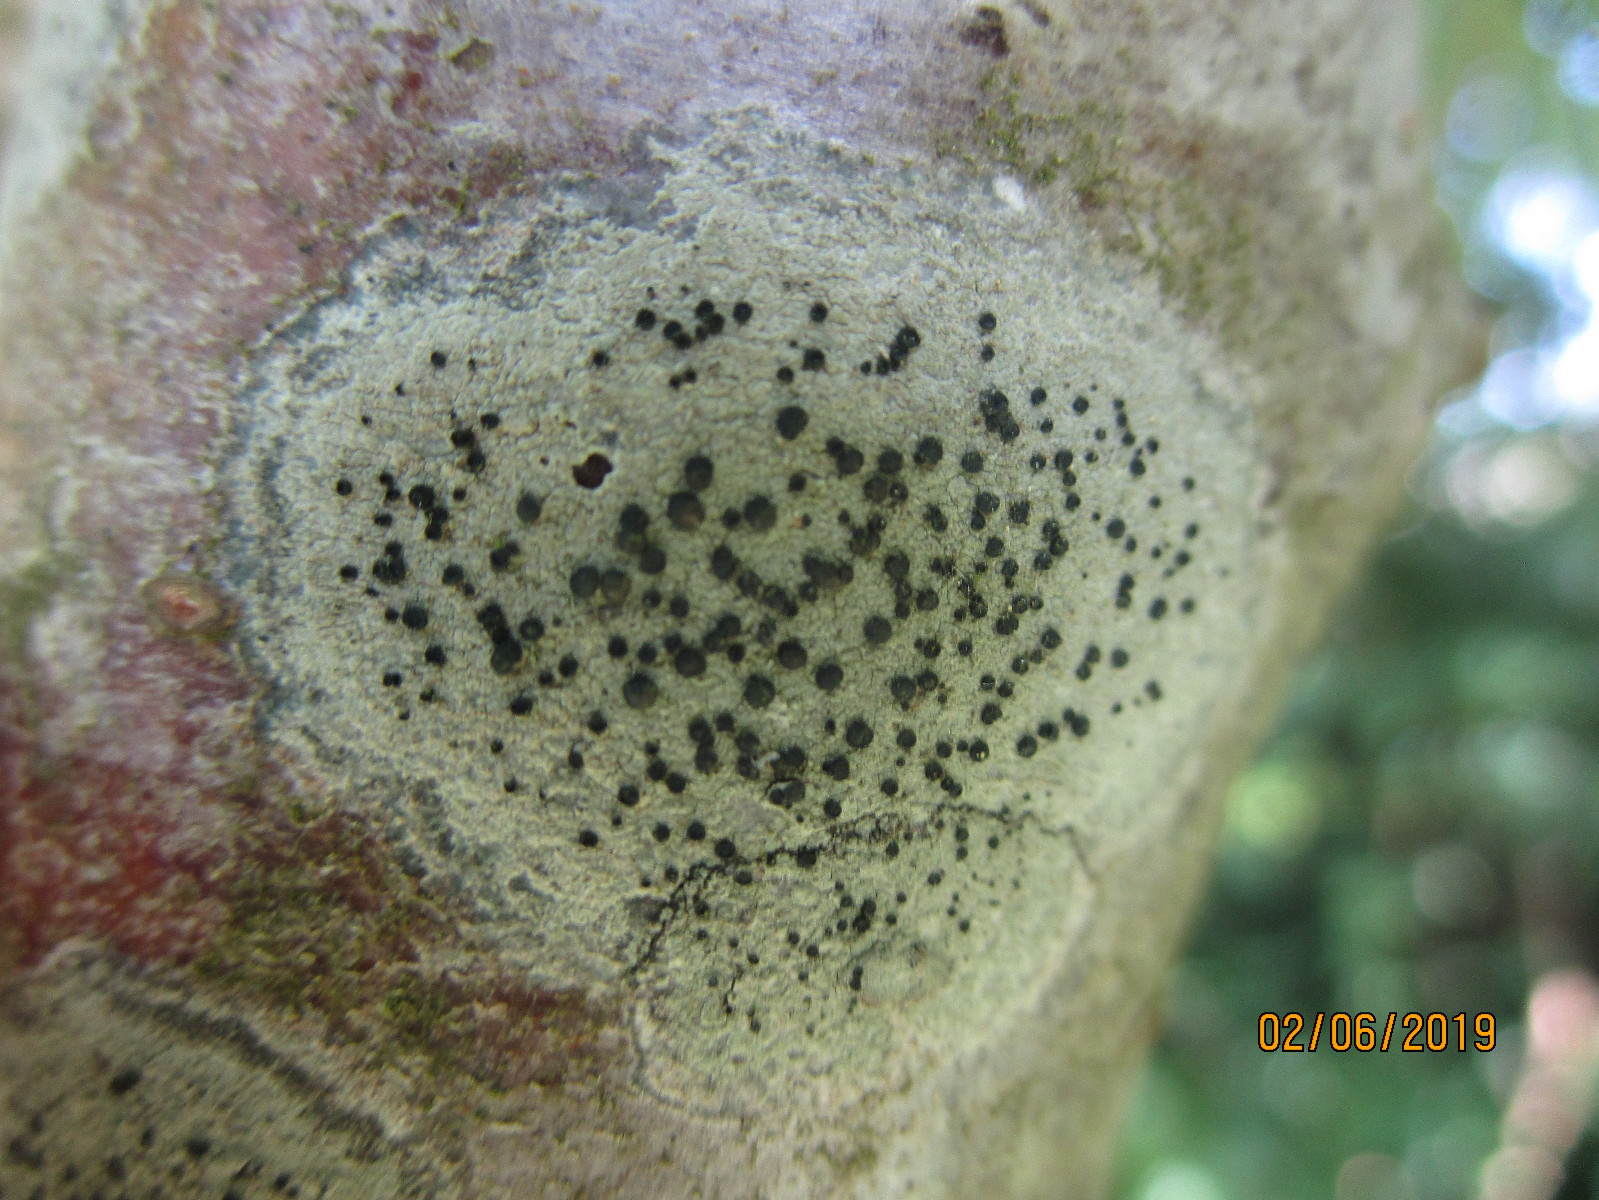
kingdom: Fungi
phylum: Ascomycota
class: Lecanoromycetes
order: Lecanorales
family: Lecanoraceae
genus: Lecidella
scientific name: Lecidella elaeochroma
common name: grågrøn skivelav
